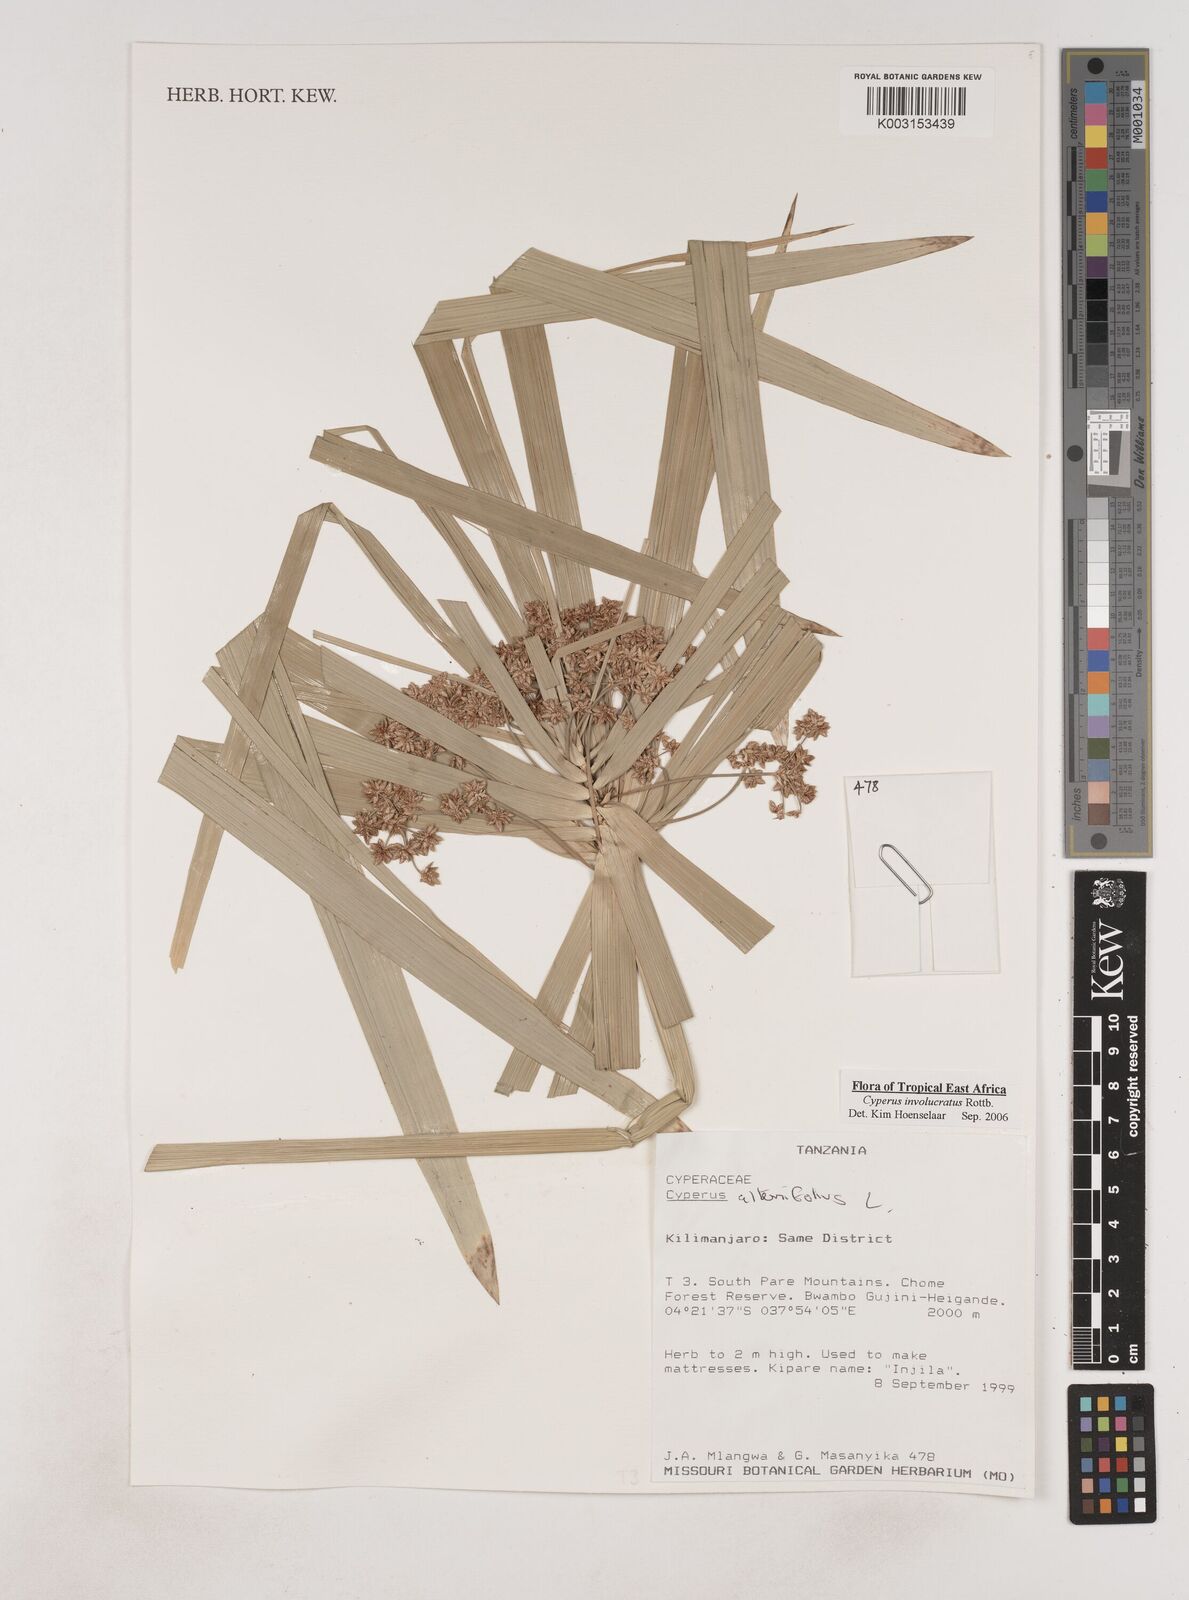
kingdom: Plantae
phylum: Tracheophyta
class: Liliopsida
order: Poales
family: Cyperaceae
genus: Cyperus
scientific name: Cyperus
